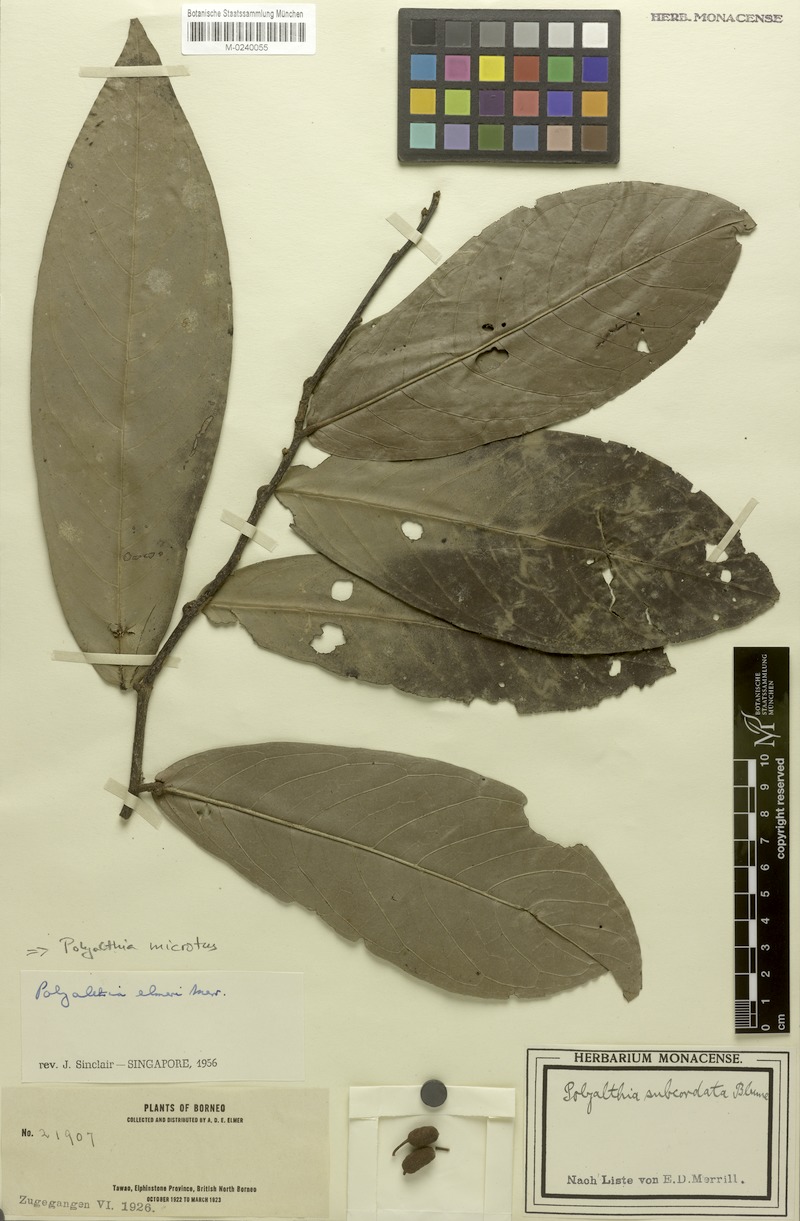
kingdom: Plantae
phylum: Tracheophyta
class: Magnoliopsida
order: Magnoliales
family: Annonaceae
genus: Polyalthia
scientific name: Polyalthia microtus
